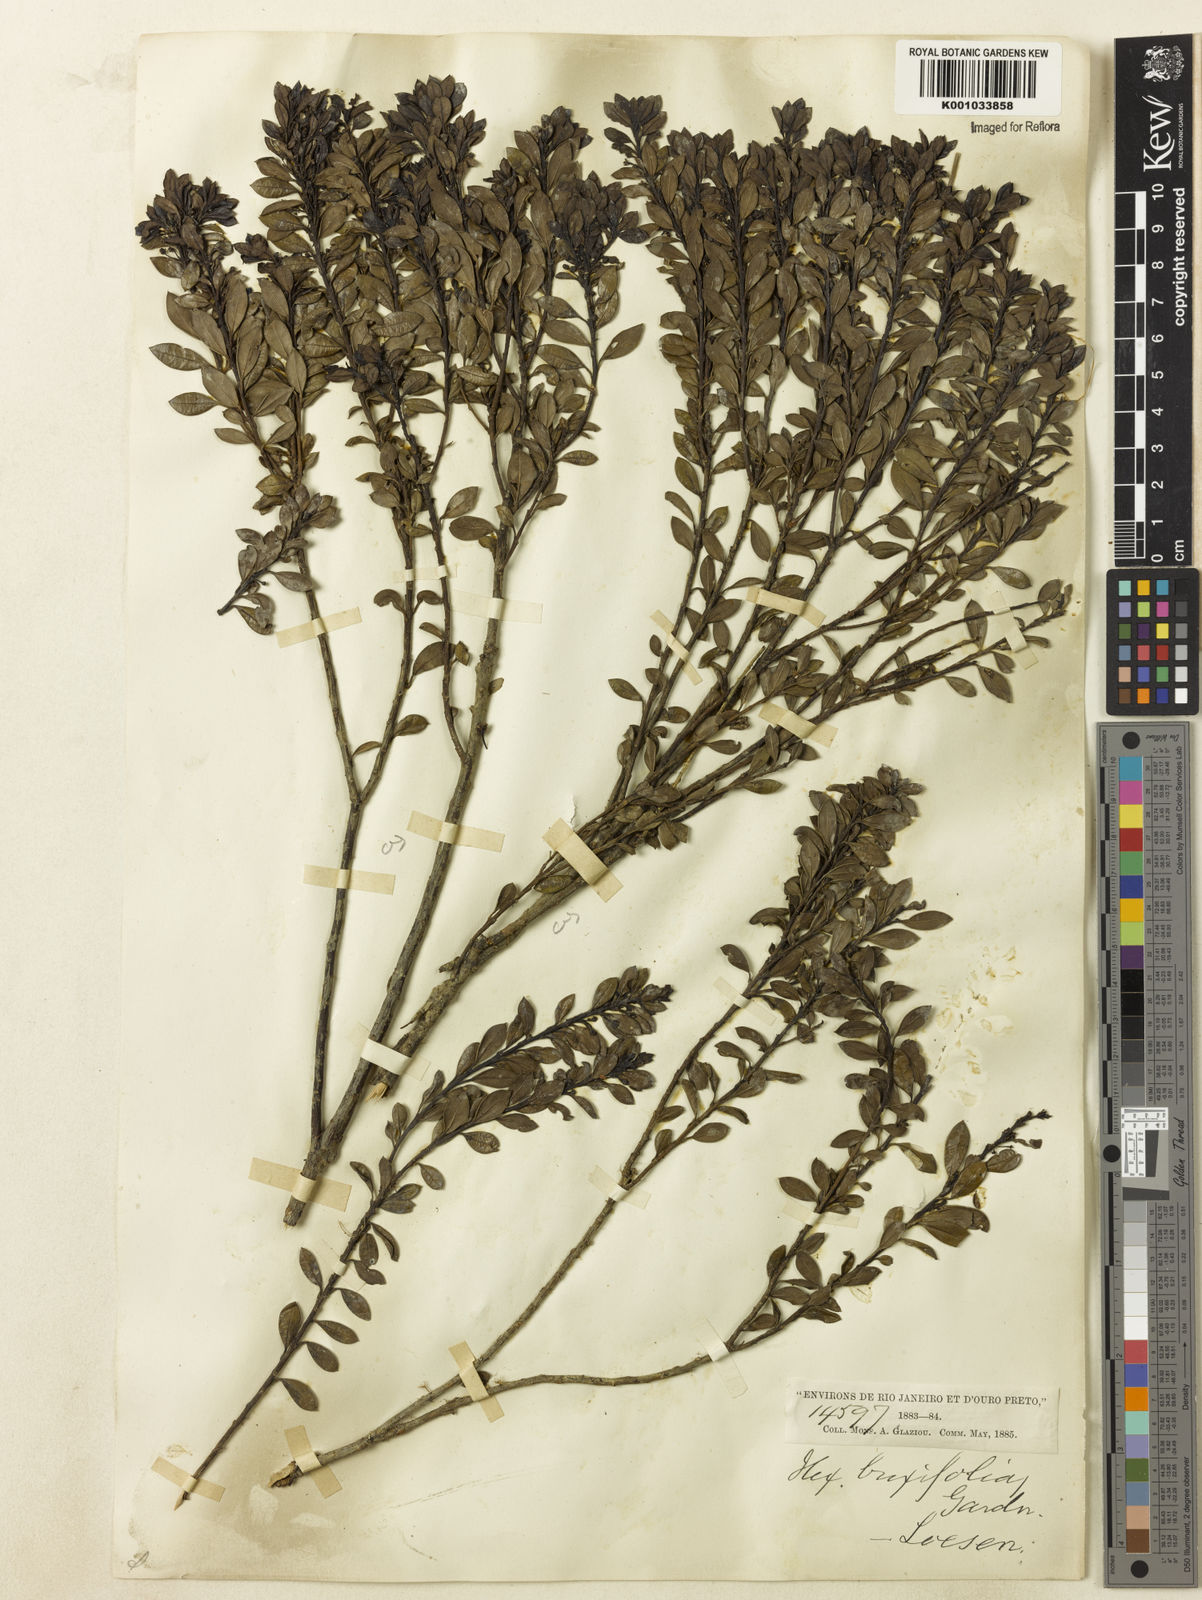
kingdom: Plantae
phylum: Tracheophyta
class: Magnoliopsida
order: Aquifoliales
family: Aquifoliaceae
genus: Ilex
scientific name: Ilex buxifolia
